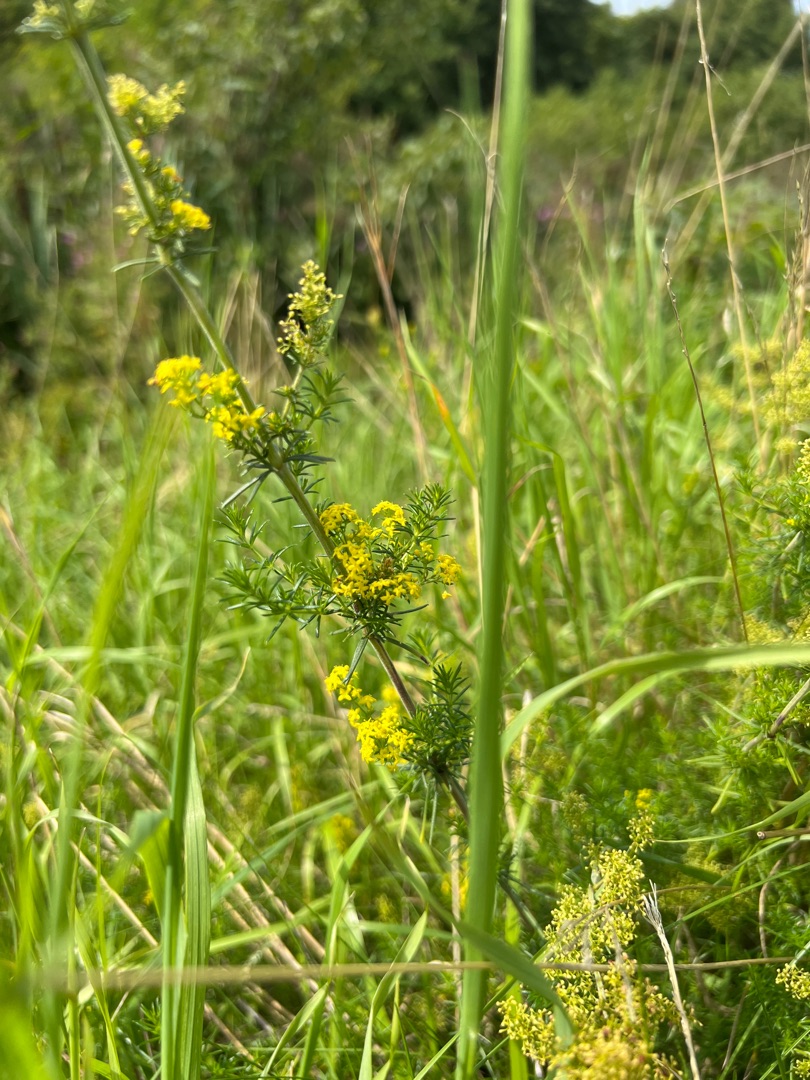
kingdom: Plantae
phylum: Tracheophyta
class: Magnoliopsida
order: Gentianales
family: Rubiaceae
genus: Galium
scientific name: Galium verum
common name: Gul snerre
